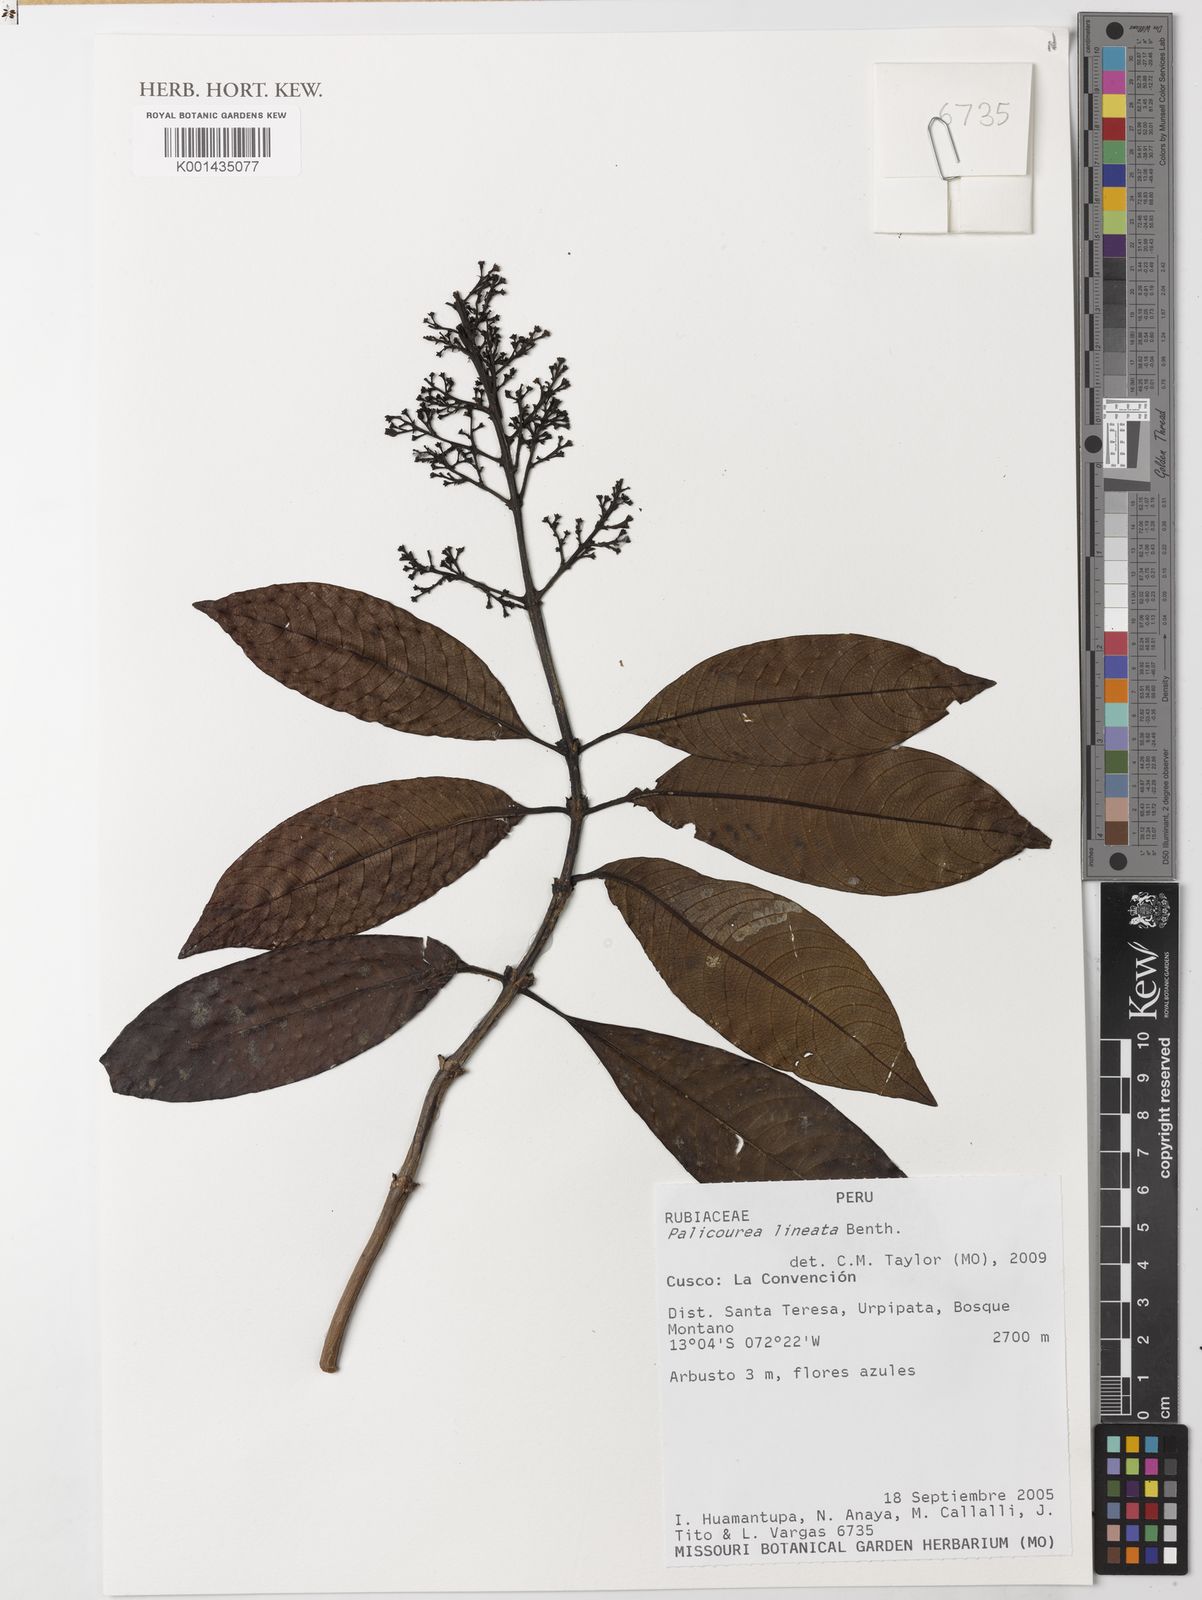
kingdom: Plantae
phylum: Tracheophyta
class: Magnoliopsida
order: Gentianales
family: Rubiaceae
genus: Palicourea
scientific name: Palicourea lineata
